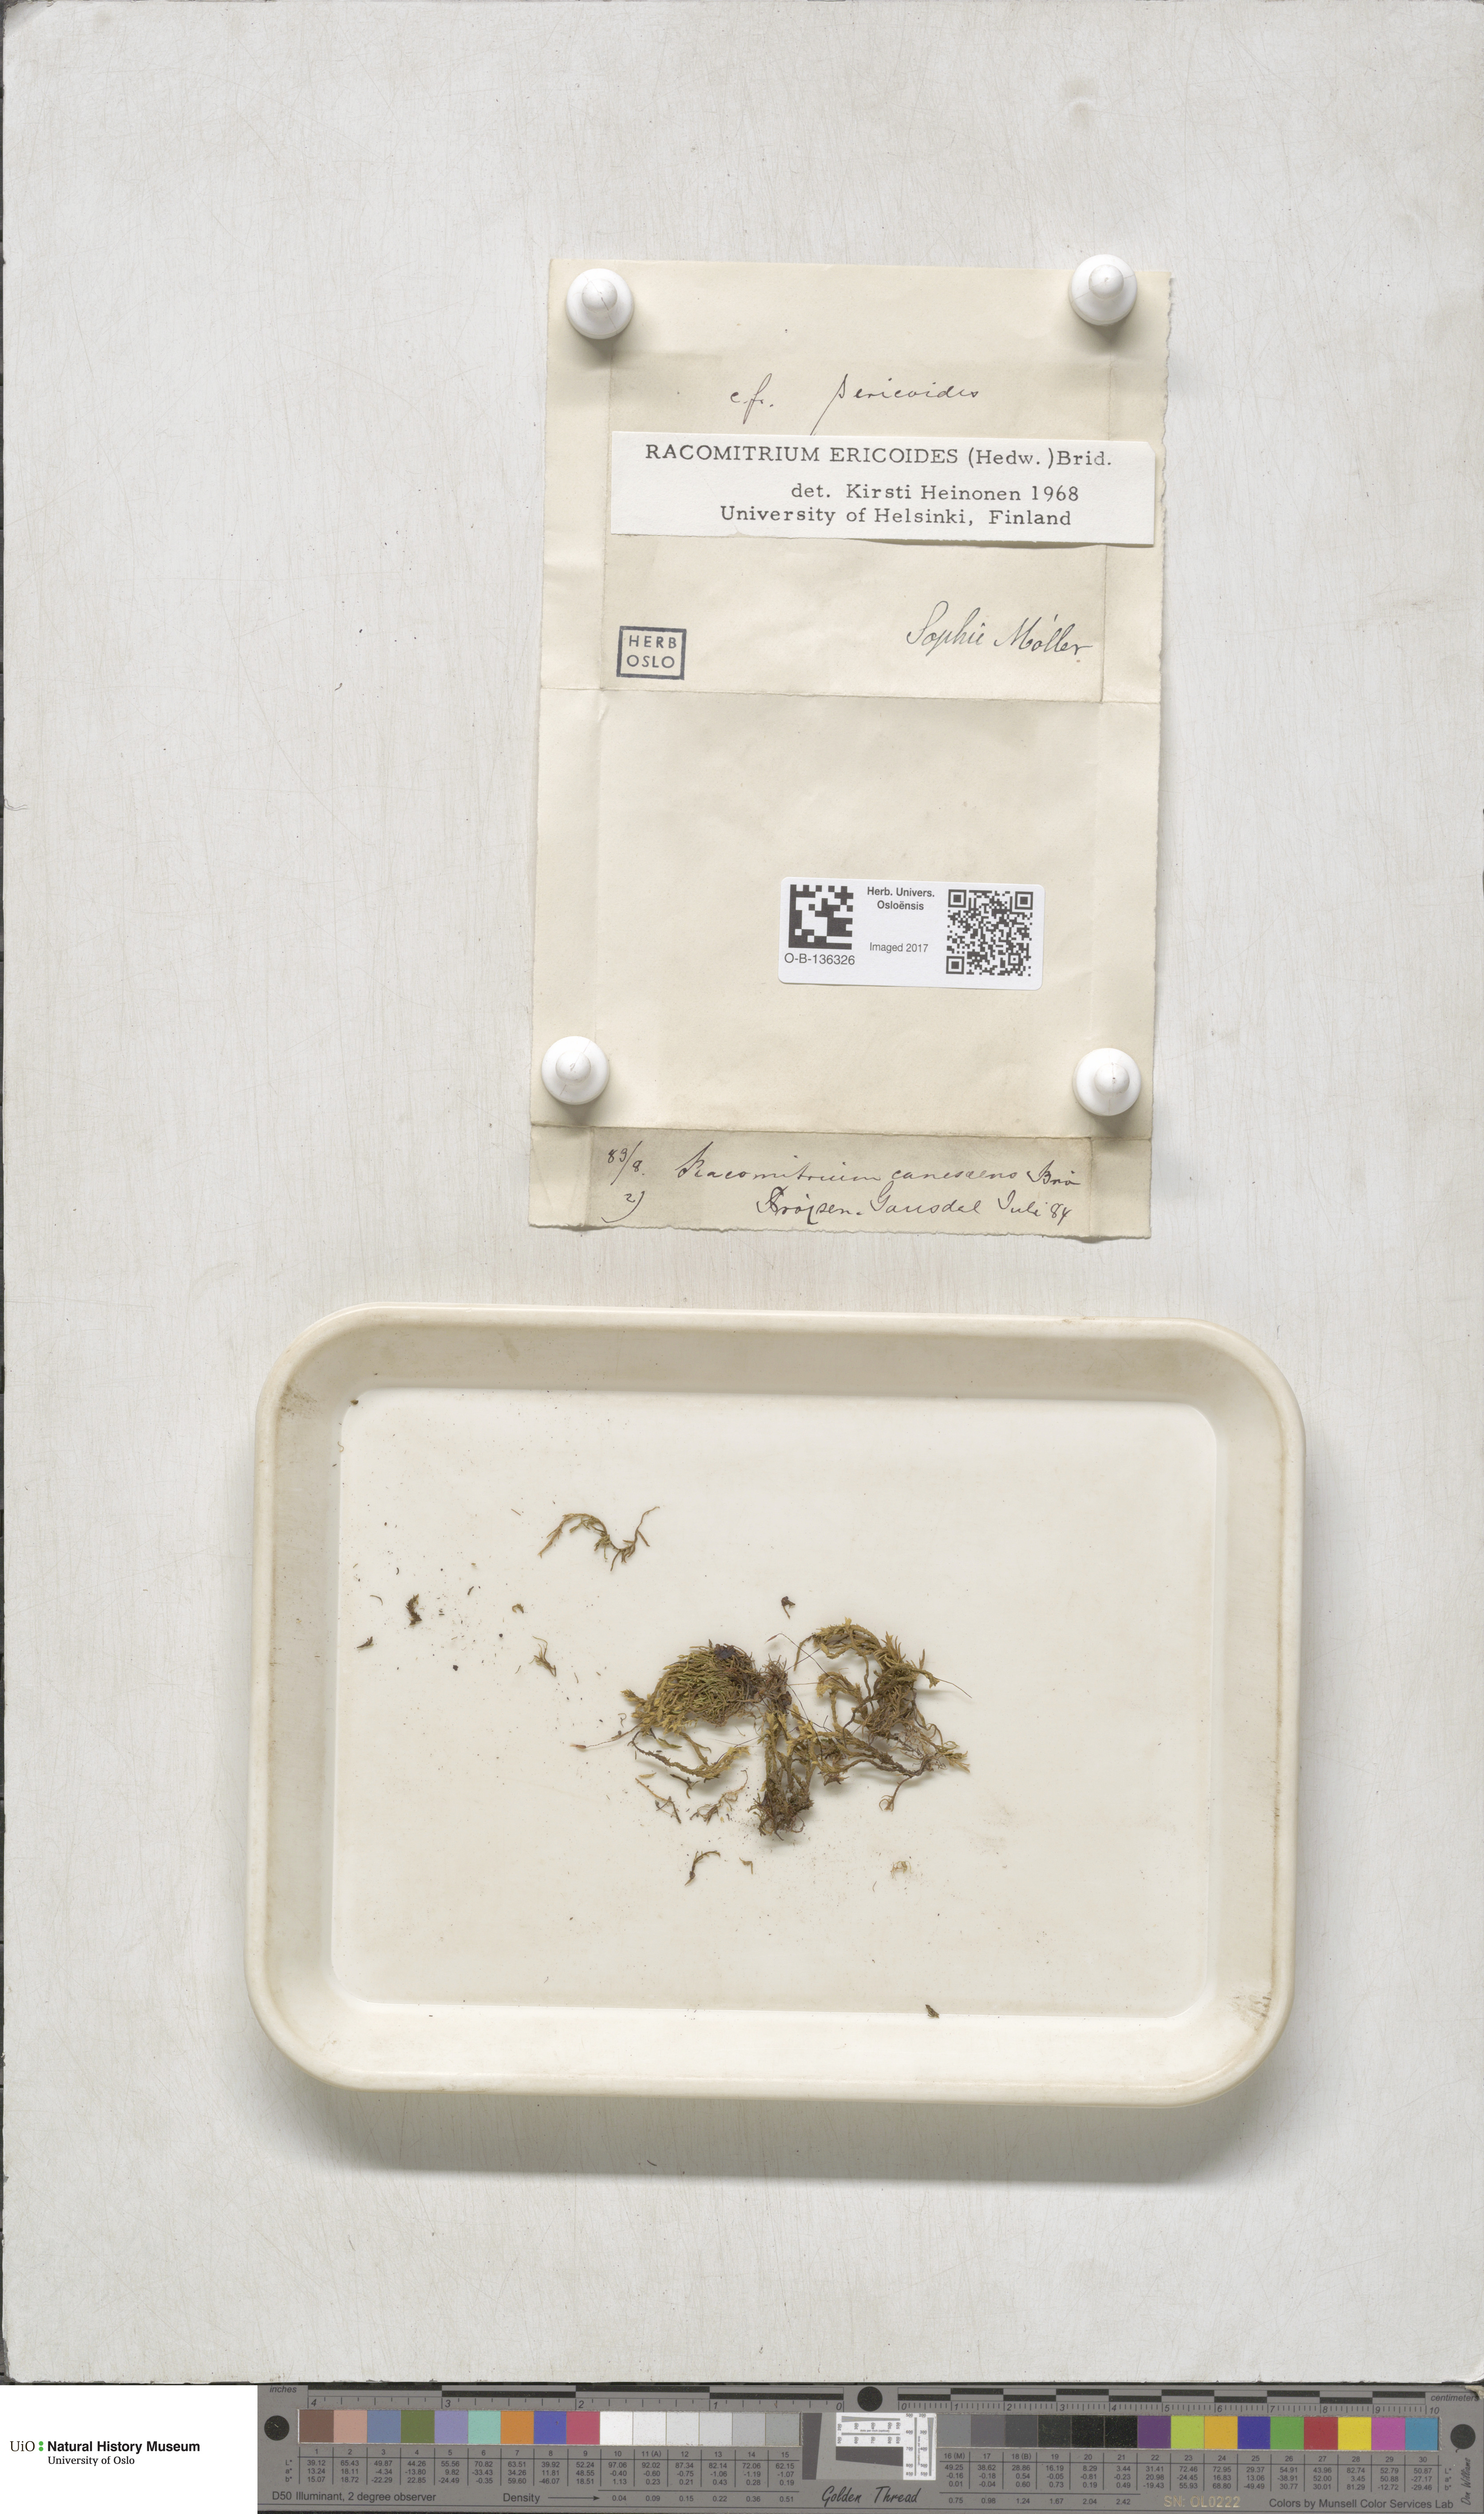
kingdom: Plantae
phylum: Bryophyta
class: Bryopsida
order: Grimmiales
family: Grimmiaceae
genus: Niphotrichum
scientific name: Niphotrichum ericoides
